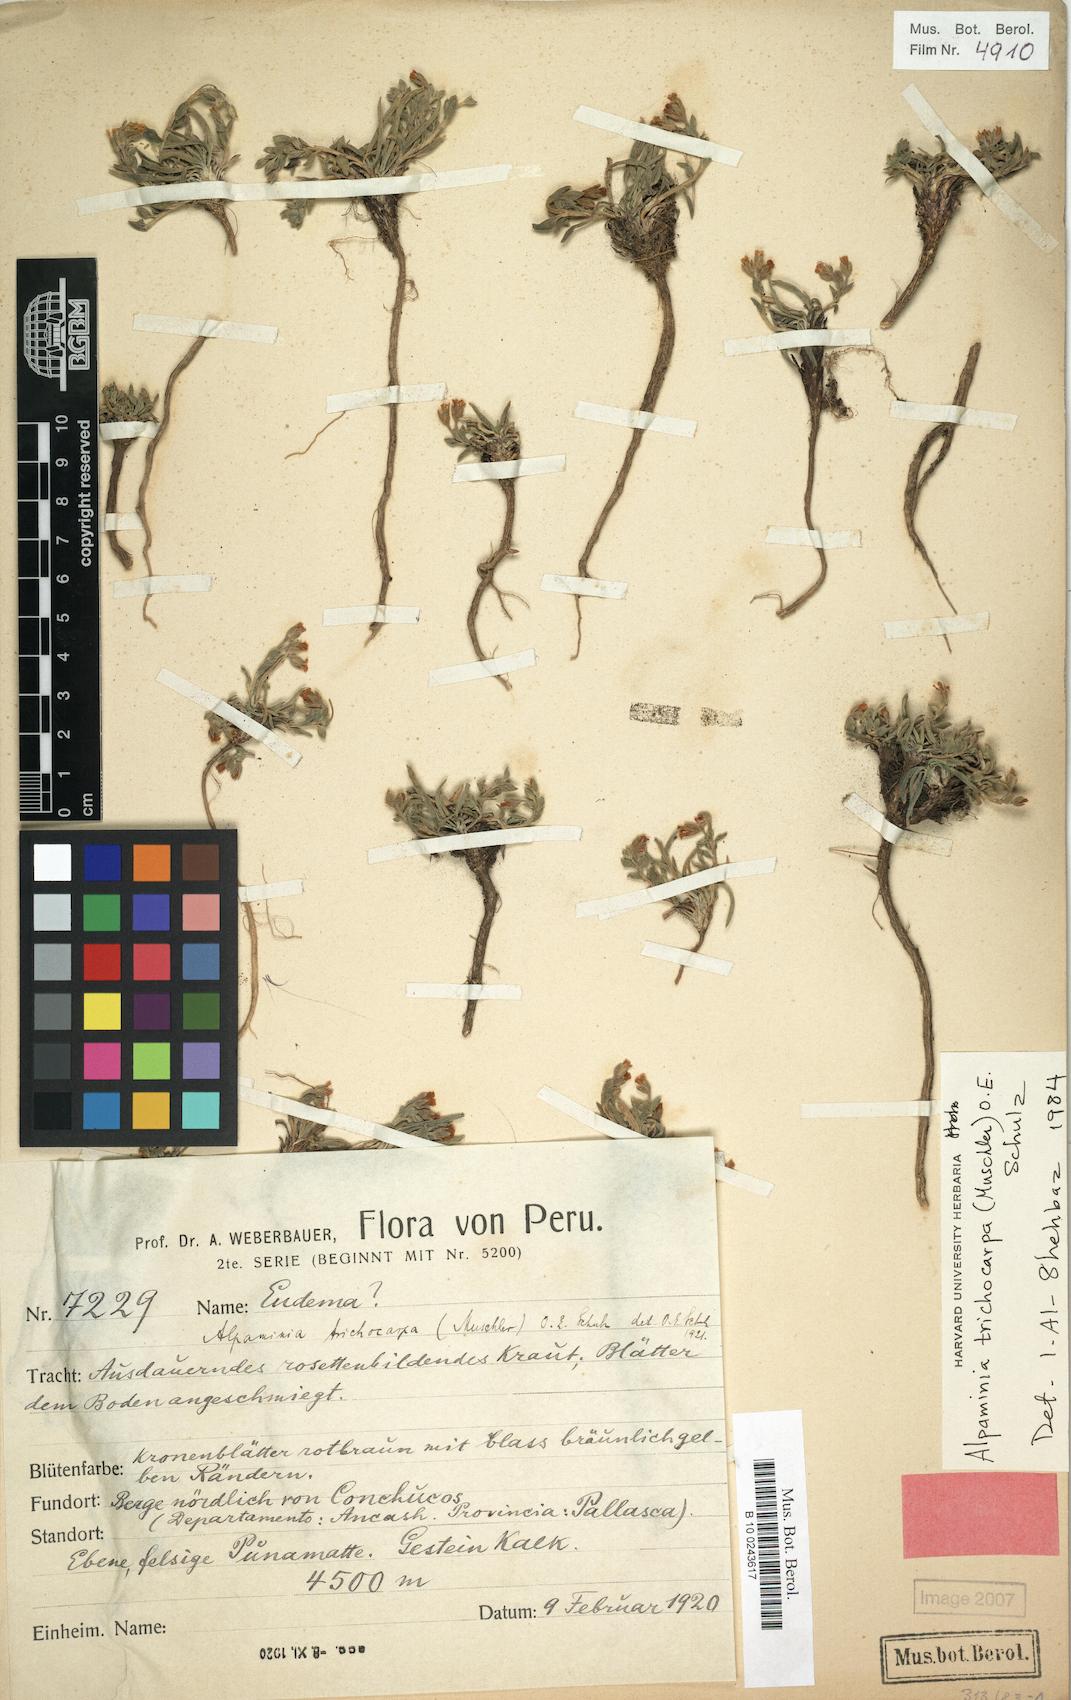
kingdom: Plantae
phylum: Tracheophyta
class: Magnoliopsida
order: Brassicales
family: Brassicaceae
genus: Weberbauera
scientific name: Weberbauera trichocarpa
